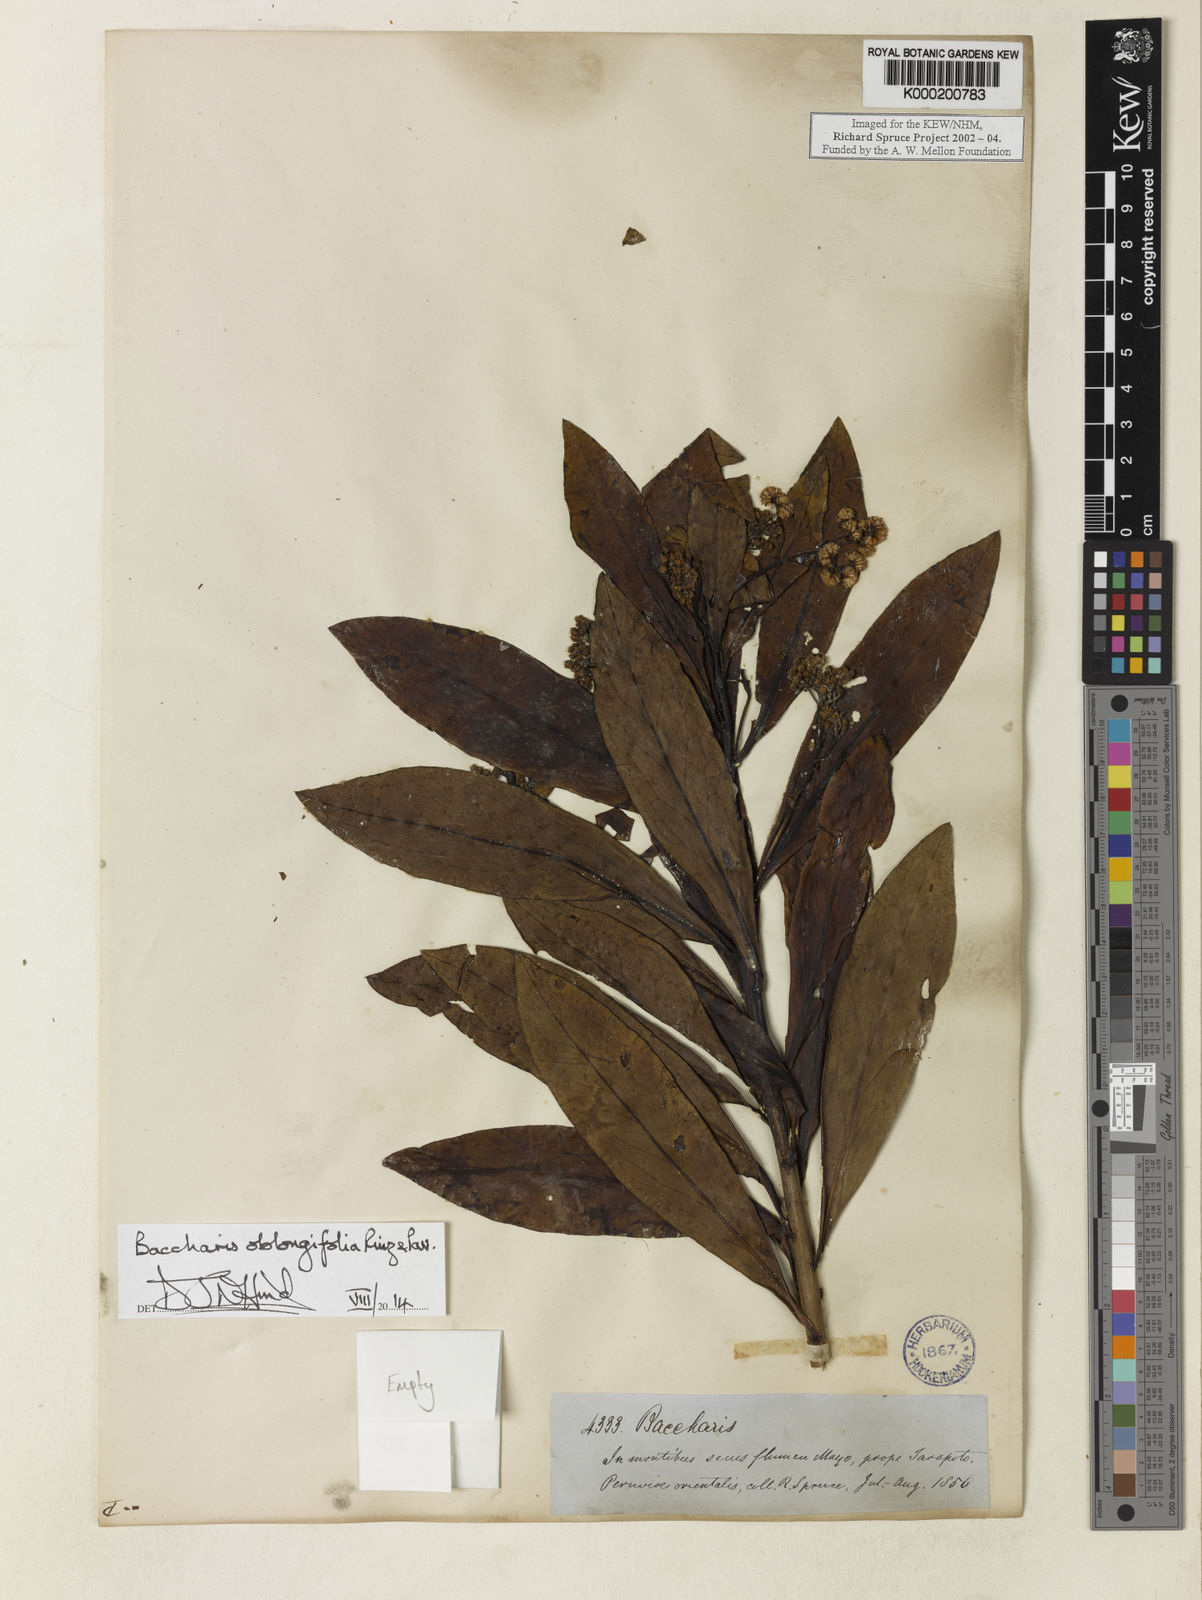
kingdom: Plantae
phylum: Tracheophyta
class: Magnoliopsida
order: Asterales
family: Asteraceae
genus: Baccharis
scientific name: Baccharis oblongifolia
